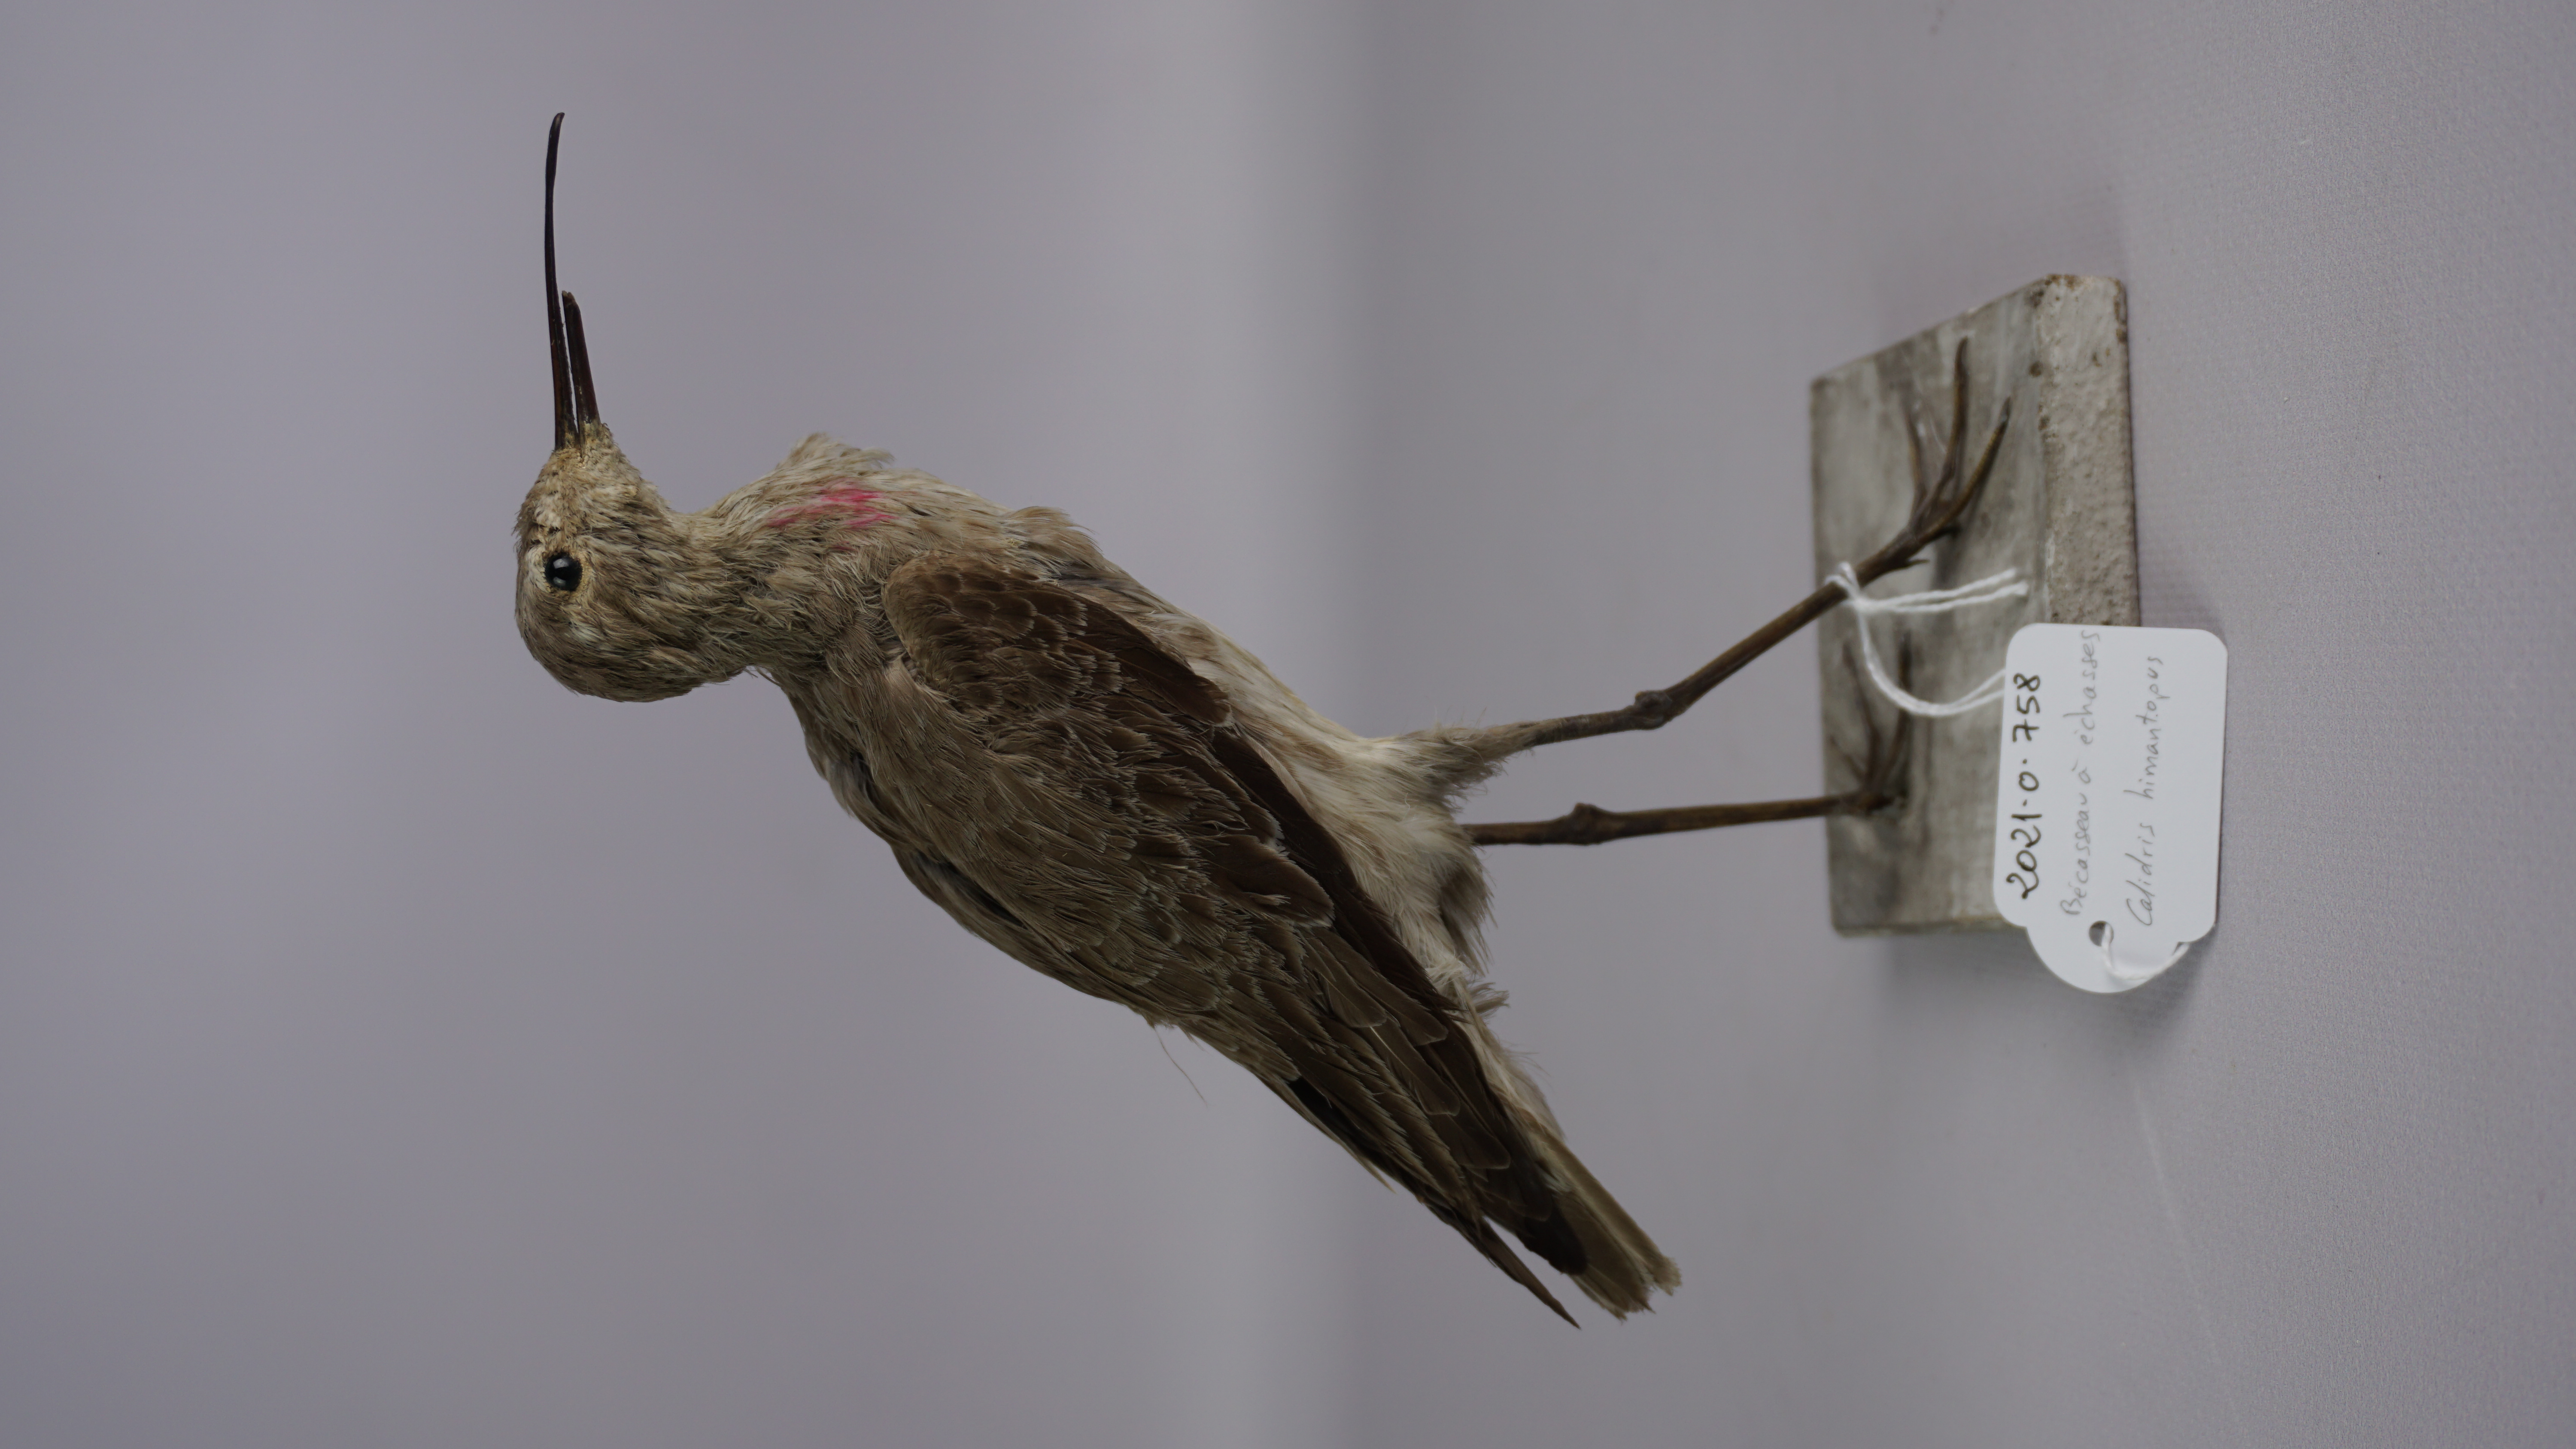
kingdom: Animalia
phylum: Chordata
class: Aves
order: Charadriiformes
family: Scolopacidae
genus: Calidris
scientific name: Calidris himantopus
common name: Stilt sandpiper
